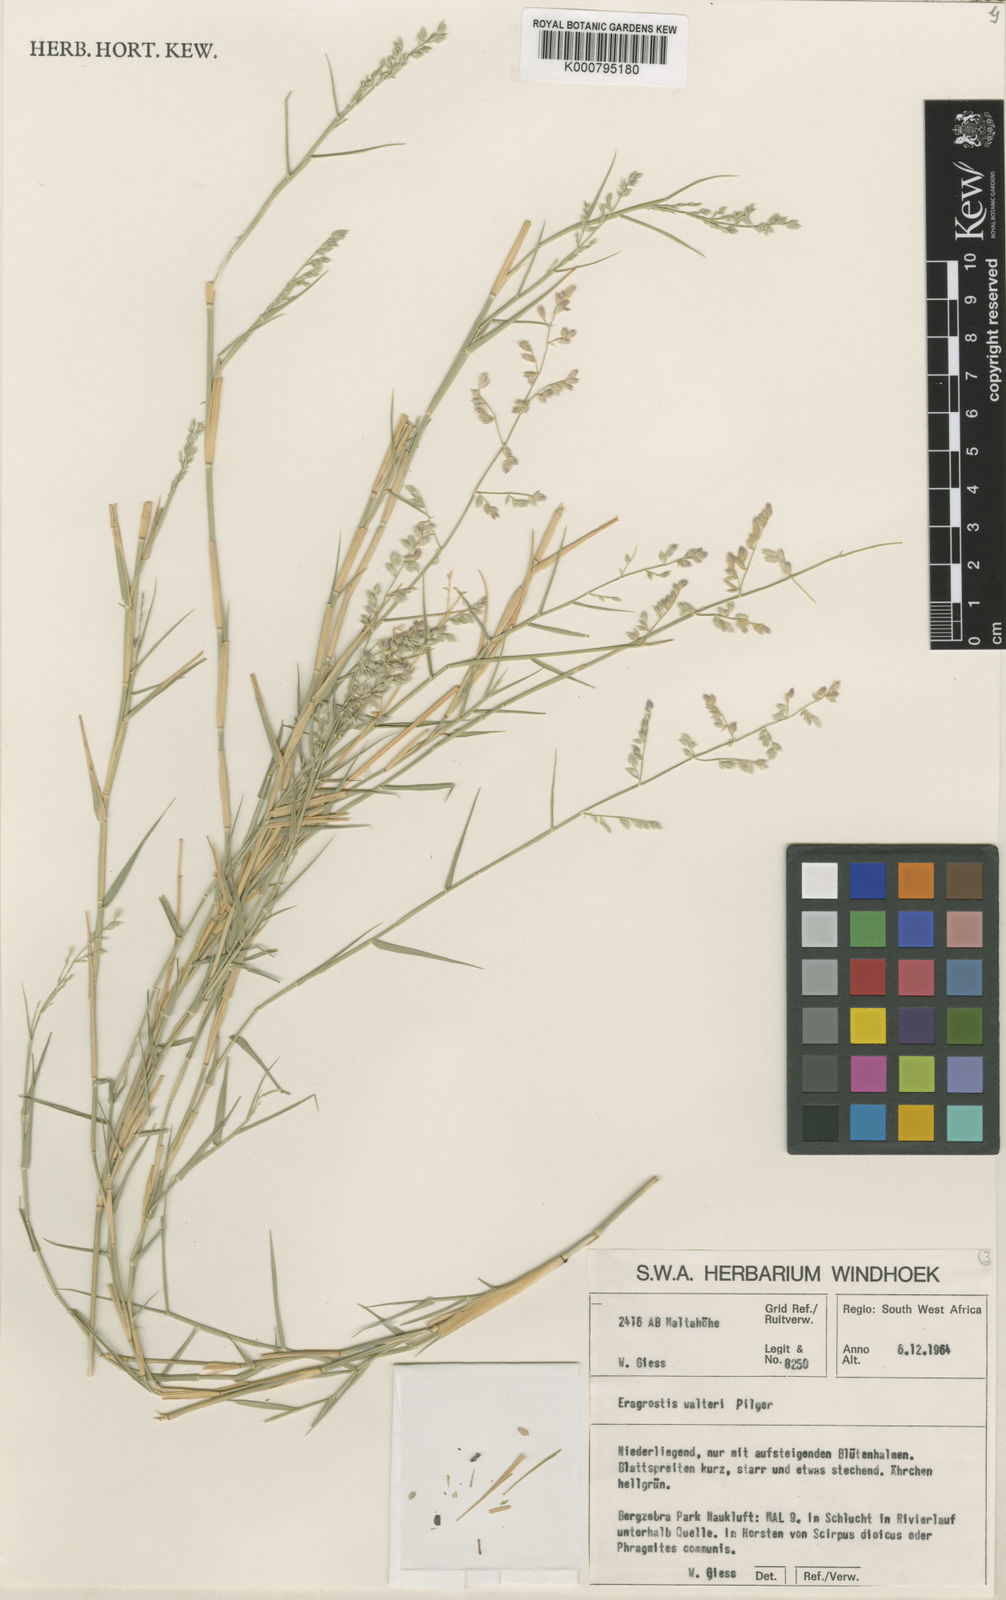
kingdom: Plantae
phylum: Tracheophyta
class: Liliopsida
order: Poales
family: Poaceae
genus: Pratochloa
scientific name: Pratochloa walteri
